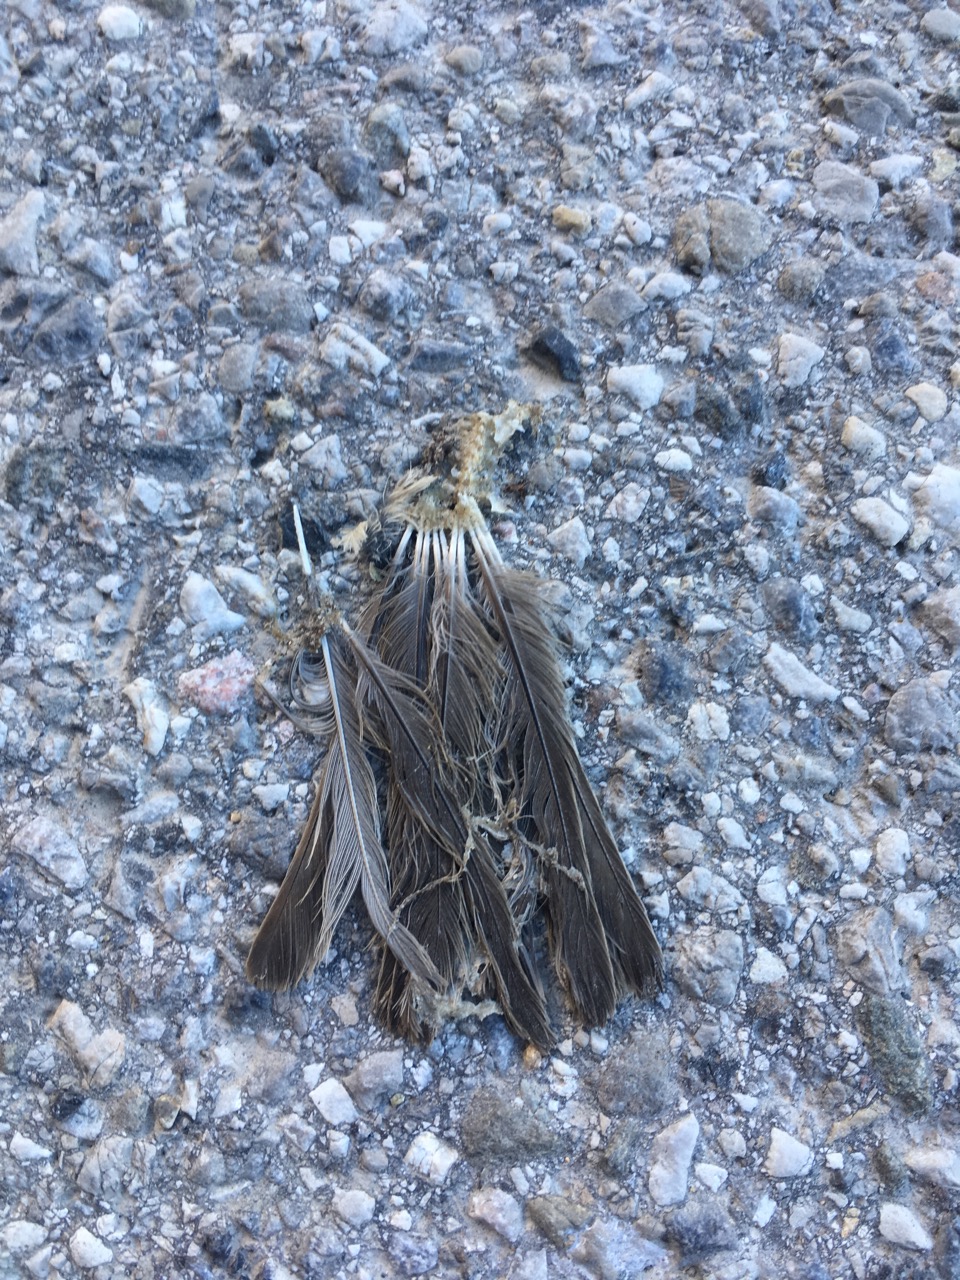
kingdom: Animalia
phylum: Chordata
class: Aves
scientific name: Aves
